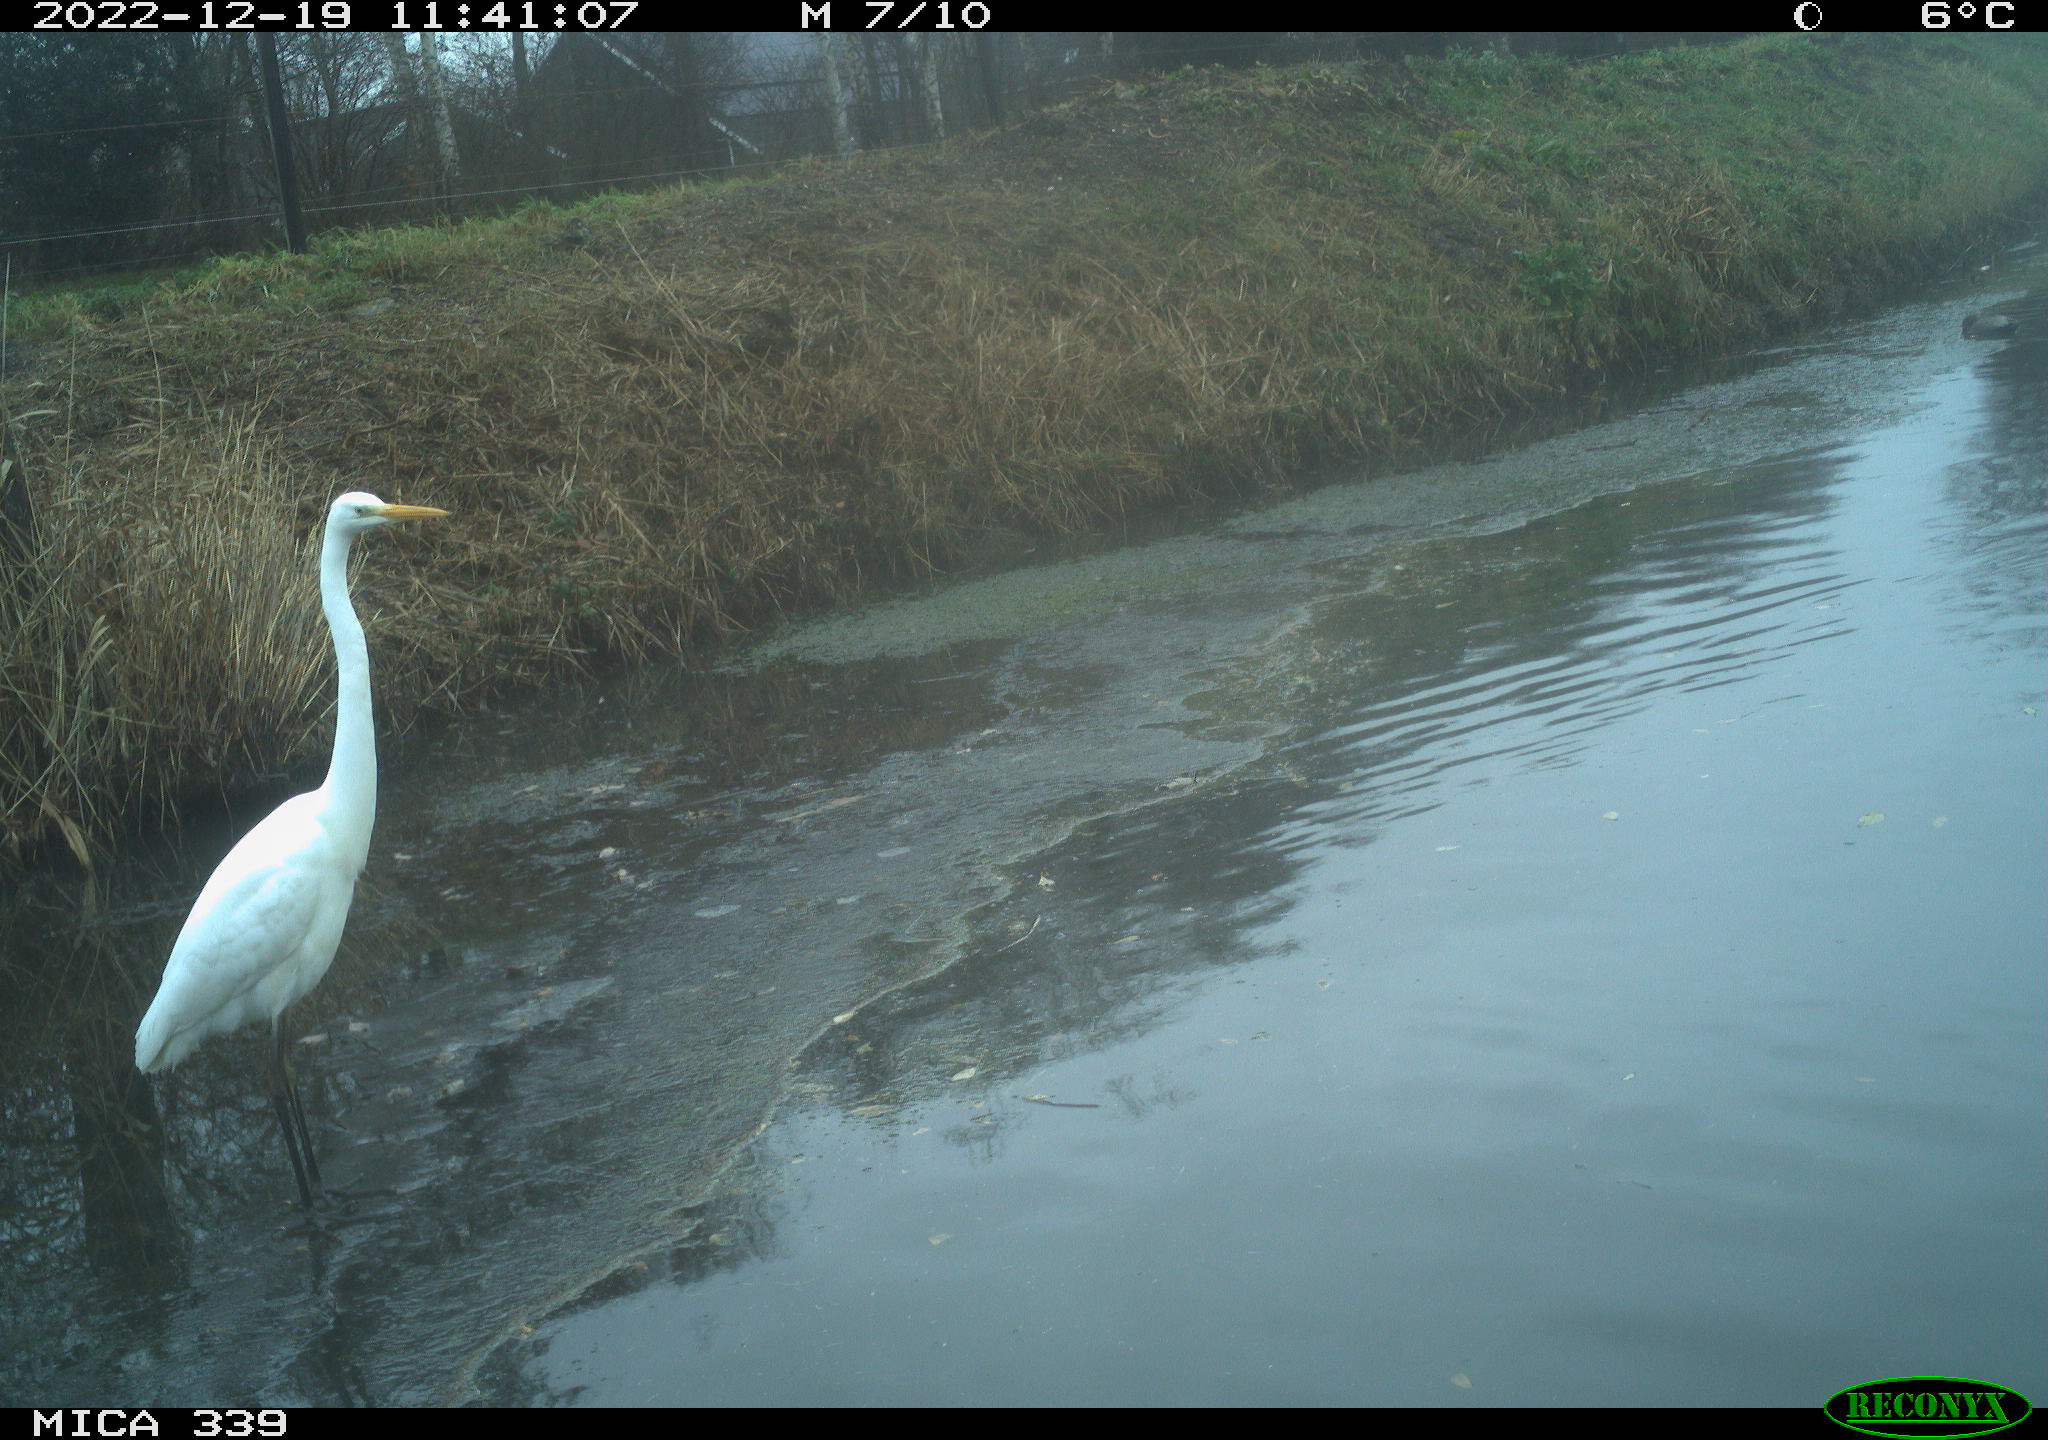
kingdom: Animalia
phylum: Chordata
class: Aves
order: Anseriformes
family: Anatidae
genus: Mareca
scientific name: Mareca strepera
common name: Gadwall
